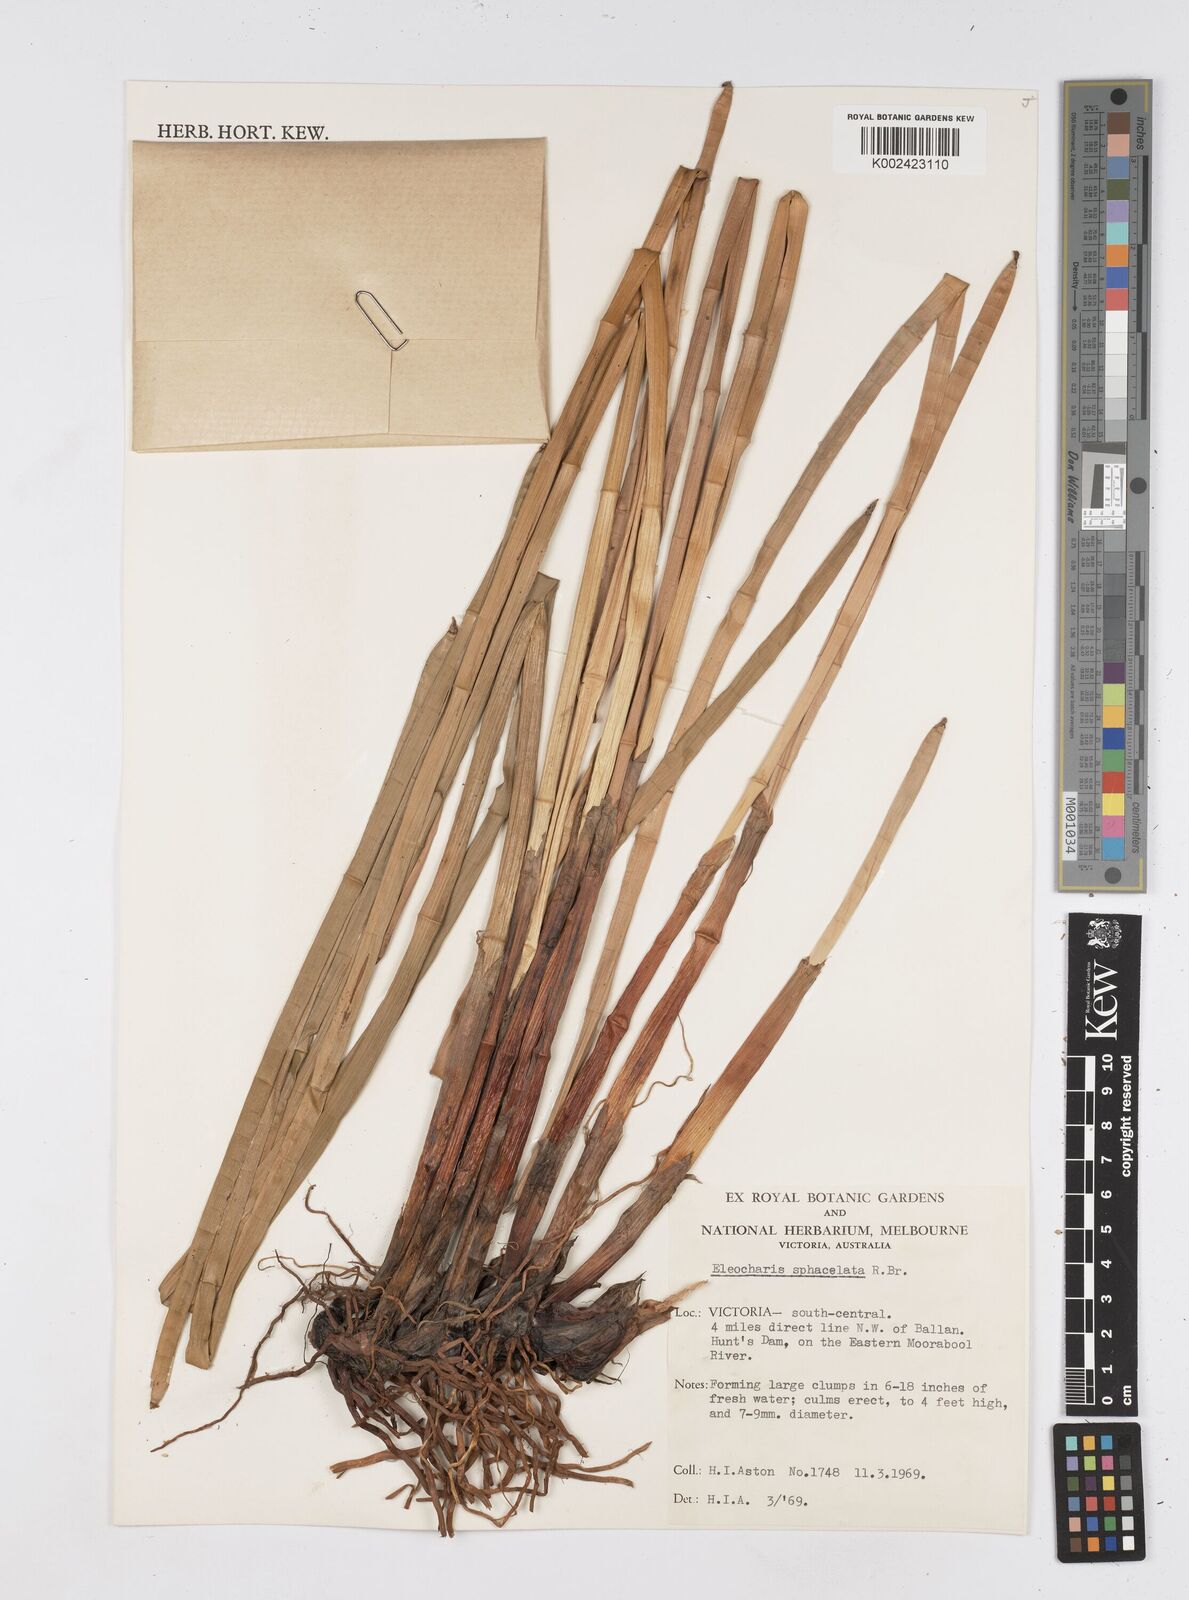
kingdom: Plantae
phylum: Tracheophyta
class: Liliopsida
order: Poales
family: Cyperaceae
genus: Eleocharis
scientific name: Eleocharis sphacelata
